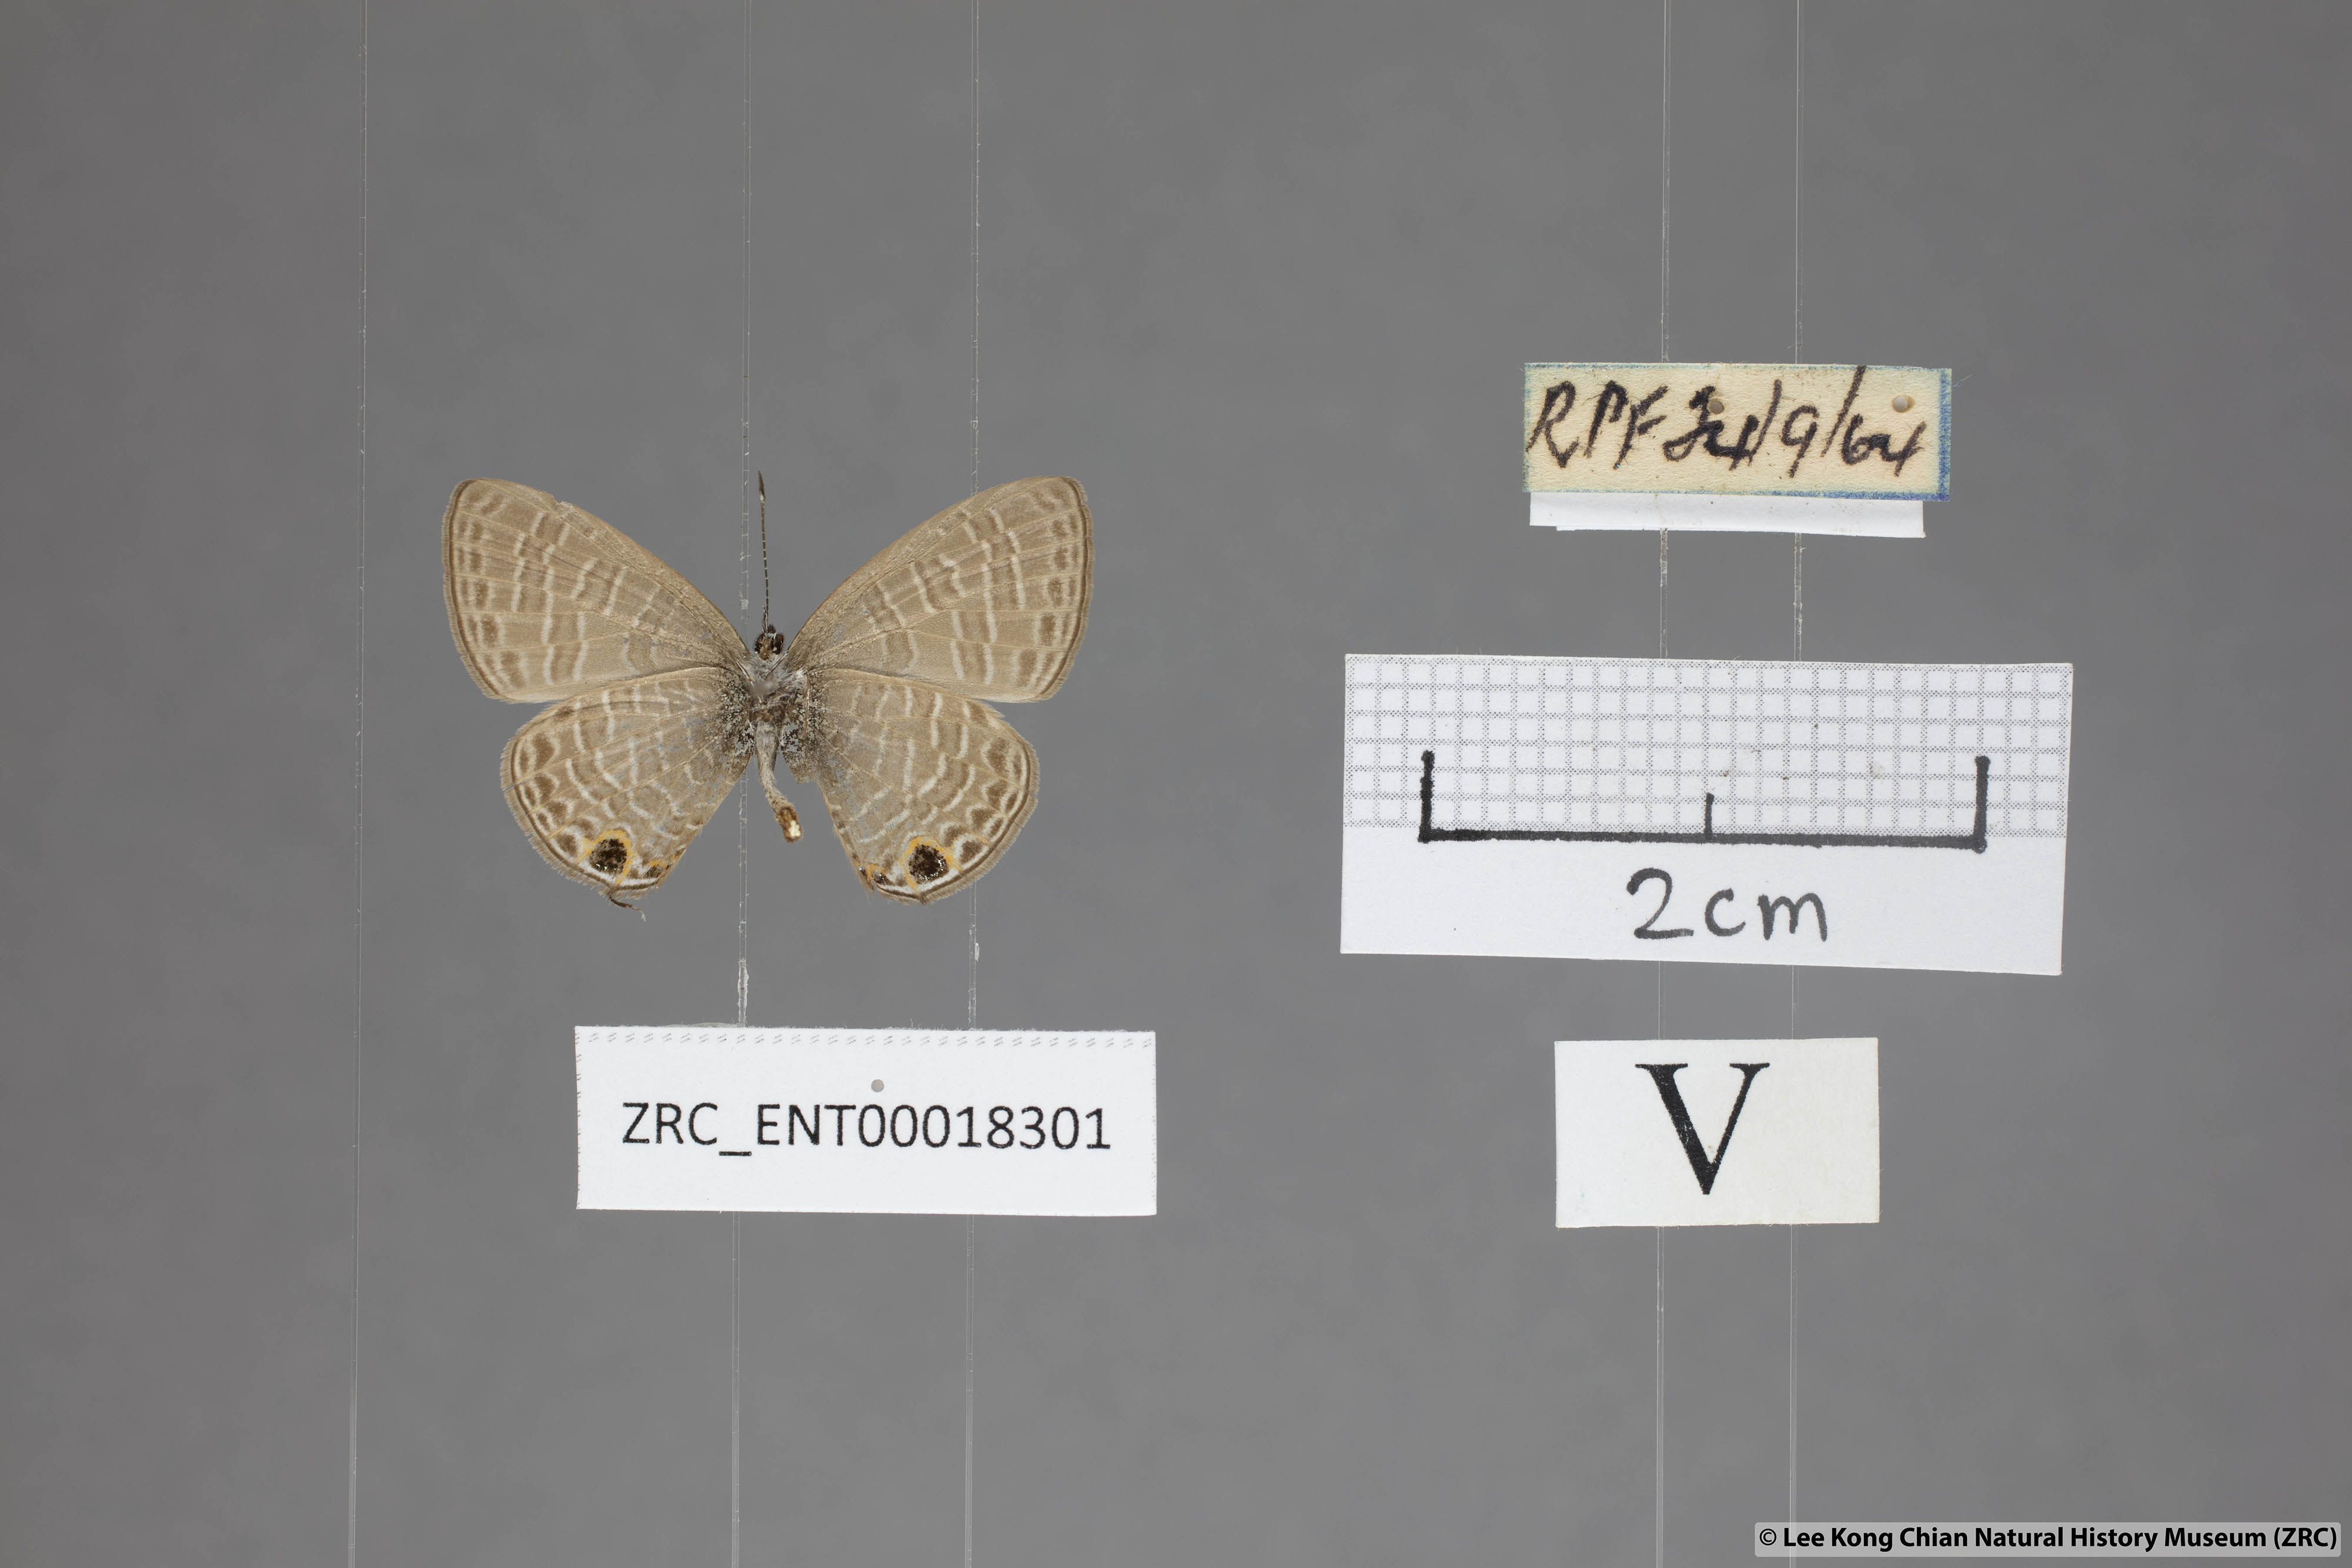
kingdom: Animalia
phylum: Arthropoda
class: Insecta
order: Lepidoptera
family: Lycaenidae
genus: Nacaduba
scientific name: Nacaduba berenice
